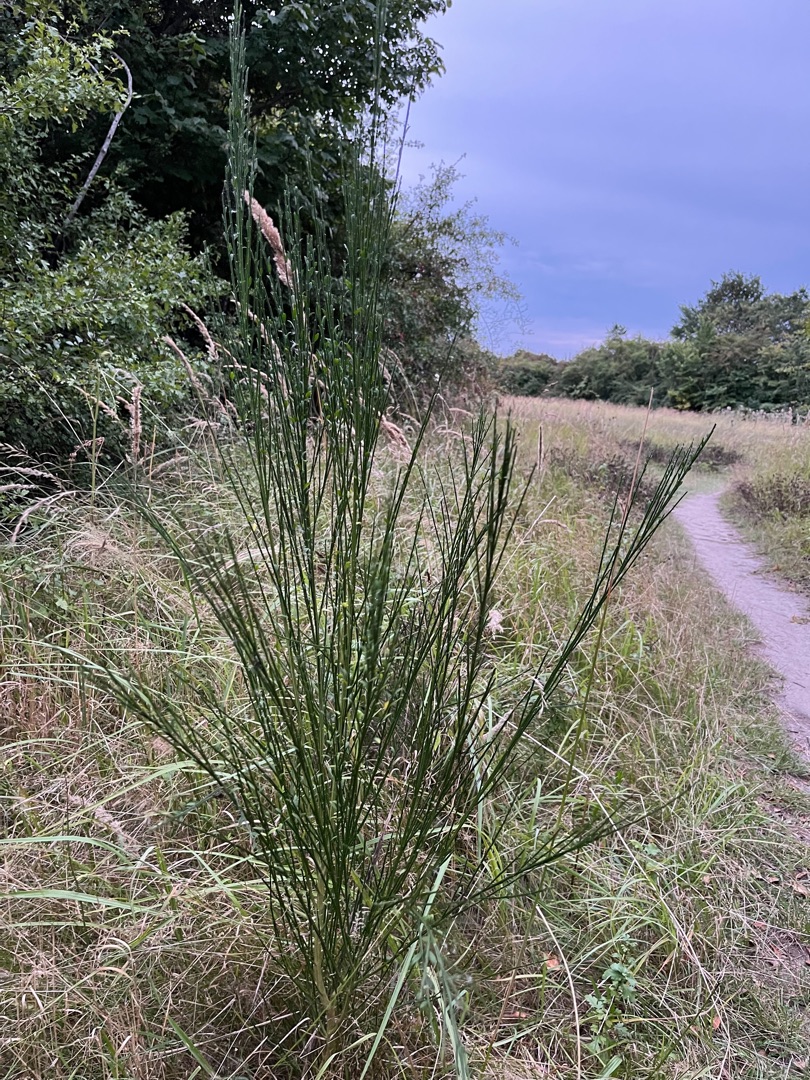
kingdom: Plantae
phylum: Tracheophyta
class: Magnoliopsida
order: Fabales
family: Fabaceae
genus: Cytisus
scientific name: Cytisus scoparius
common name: Almindelig gyvel
